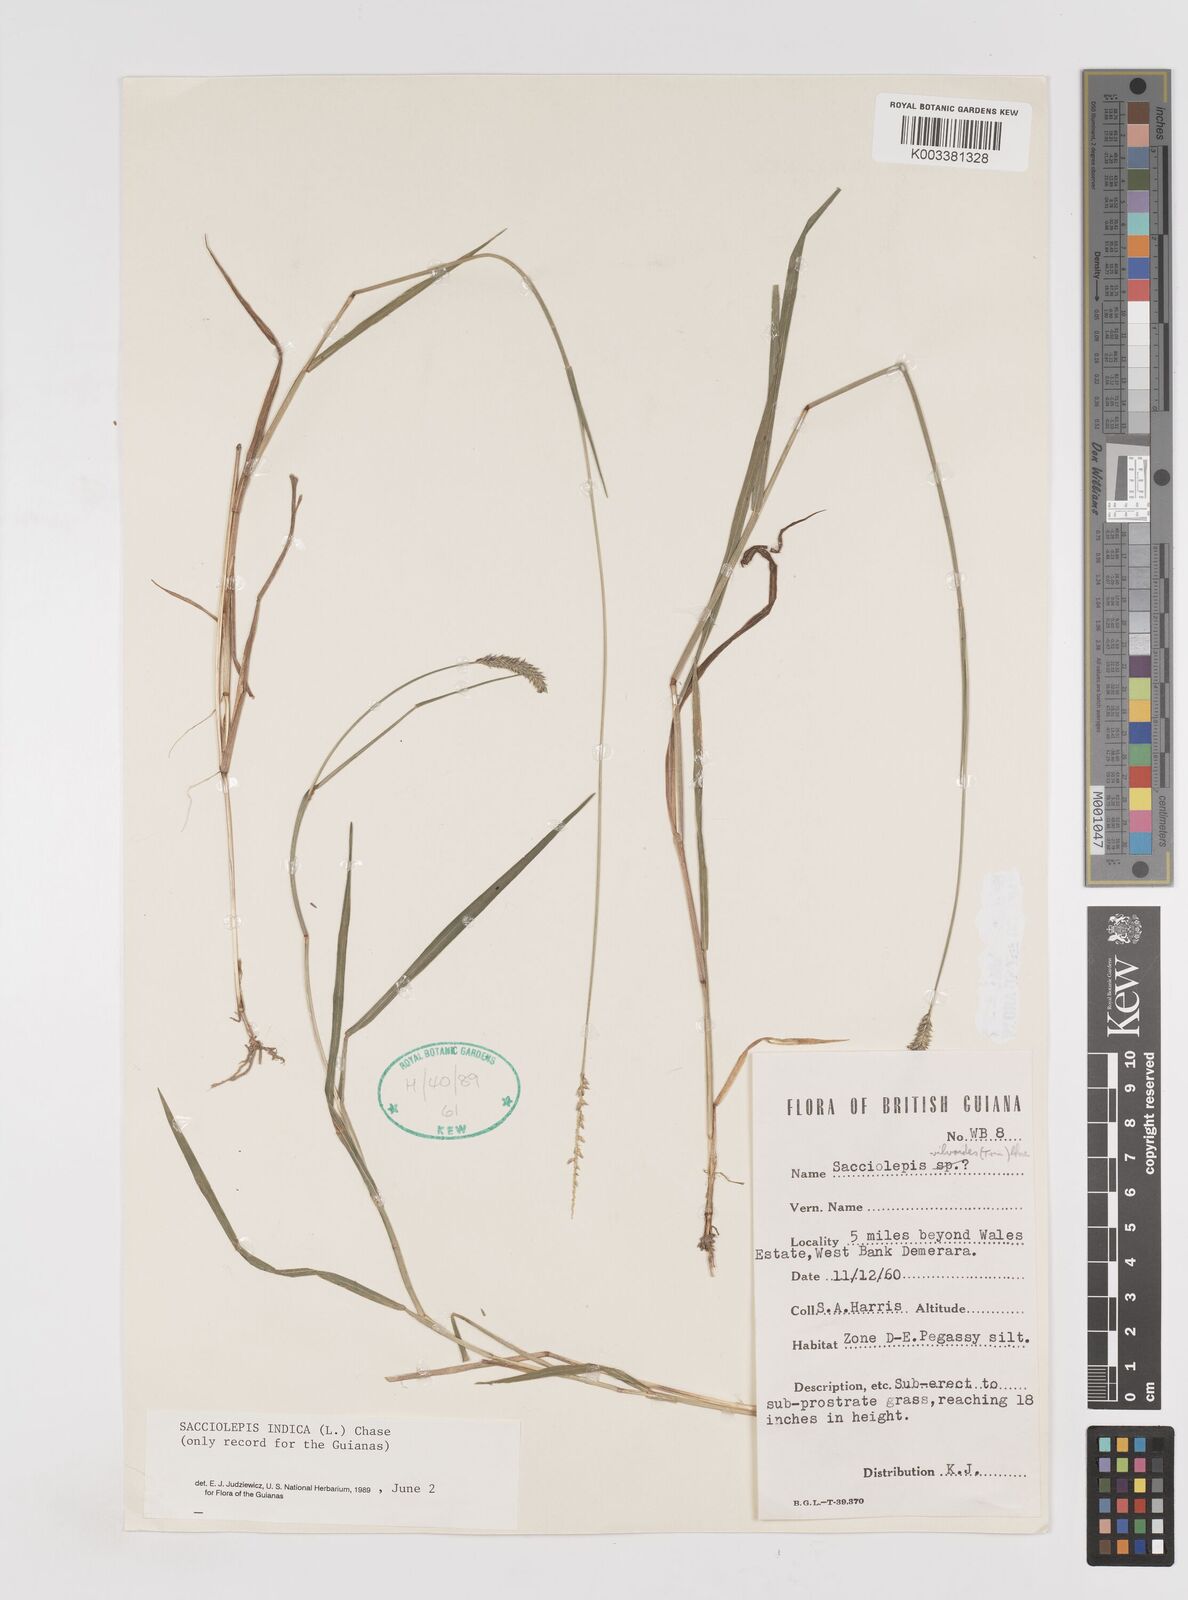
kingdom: Plantae
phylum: Tracheophyta
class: Liliopsida
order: Poales
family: Poaceae
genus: Sacciolepis
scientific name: Sacciolepis indica
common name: Glenwoodgrass
